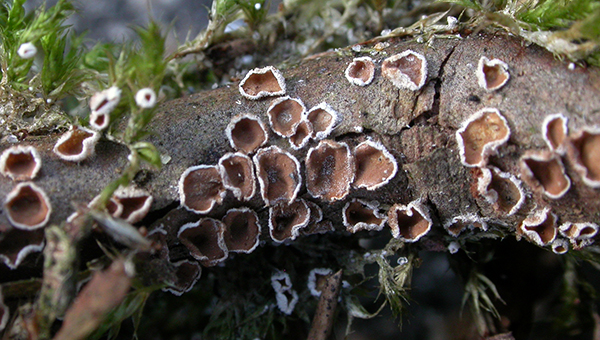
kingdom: Fungi
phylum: Basidiomycota
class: Agaricomycetes
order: Agaricales
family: Chromocyphellaceae
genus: Chromocyphella
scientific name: Chromocyphella muscicola
